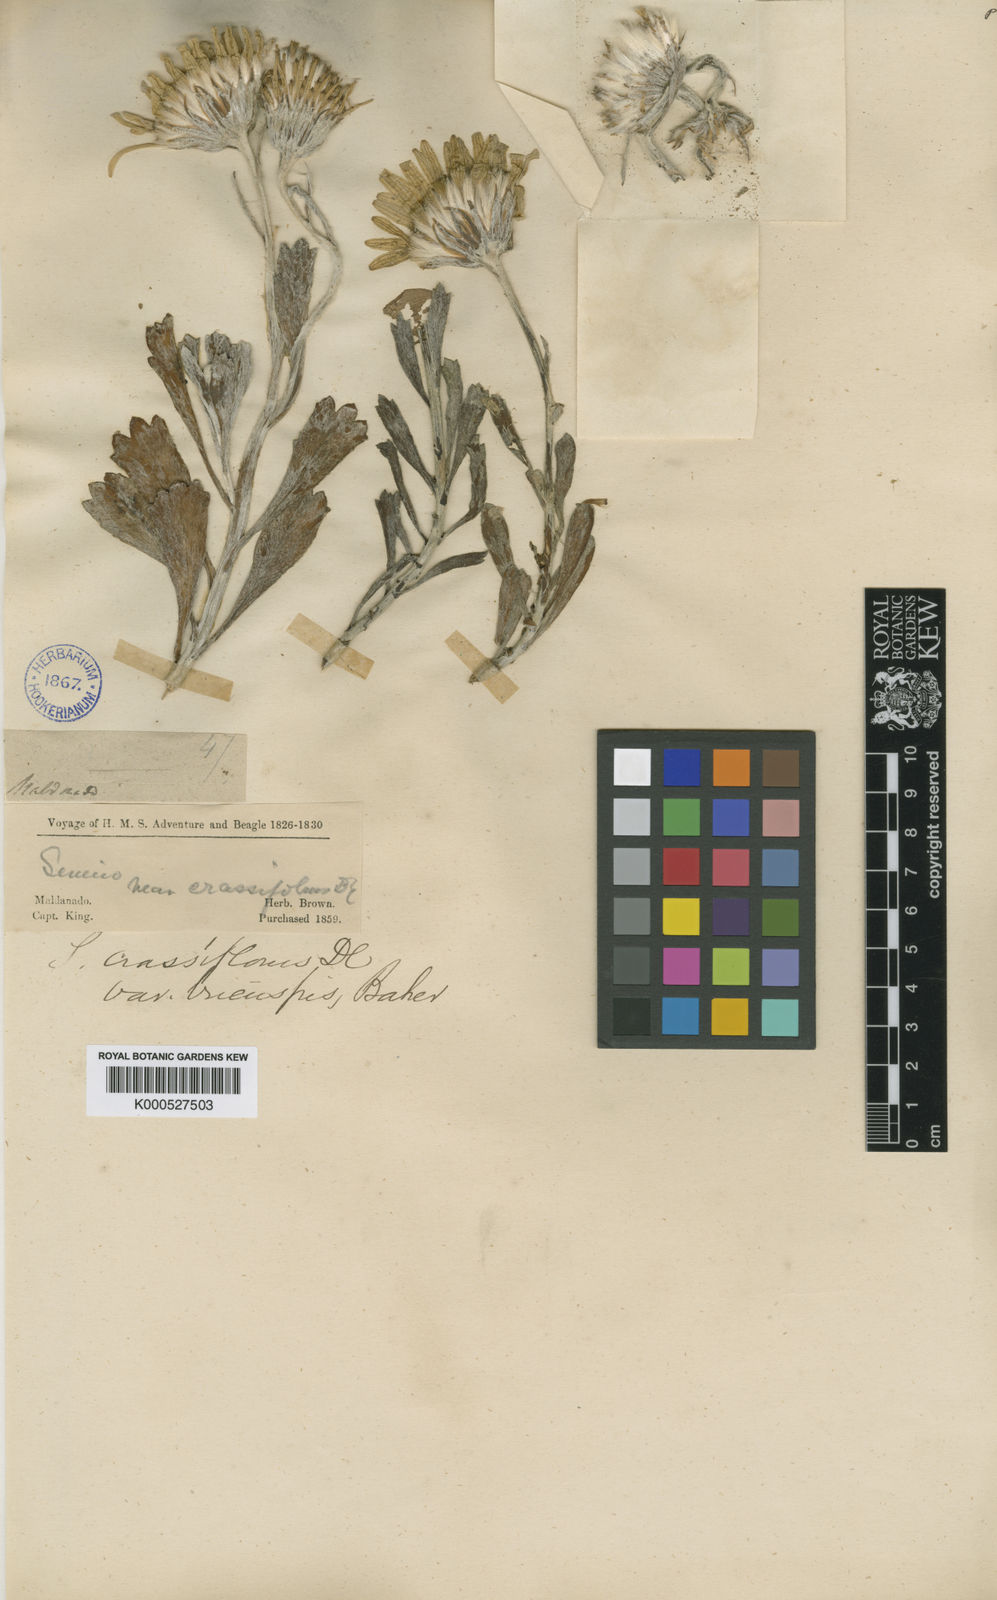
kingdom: Plantae
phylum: Tracheophyta
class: Magnoliopsida
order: Asterales
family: Asteraceae
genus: Senecio
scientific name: Senecio crassiflorus
